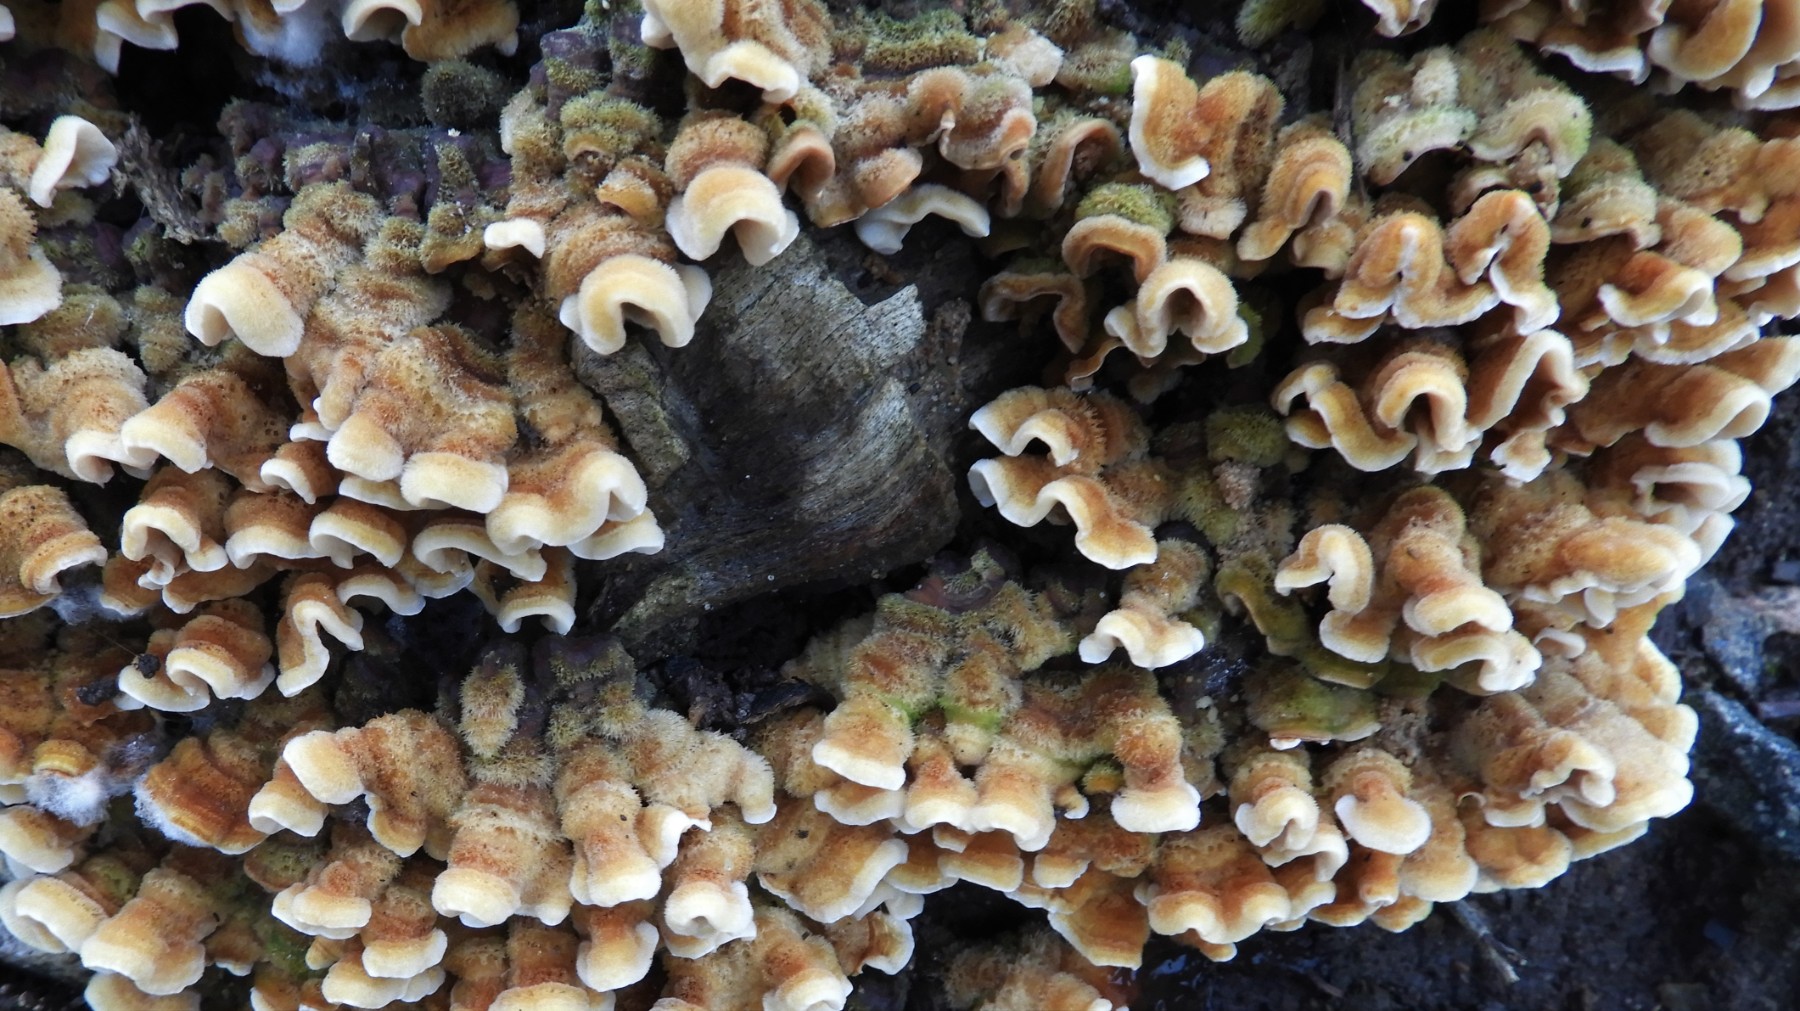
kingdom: Fungi
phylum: Basidiomycota
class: Agaricomycetes
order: Russulales
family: Stereaceae
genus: Stereum
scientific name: Stereum hirsutum
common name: håret lædersvamp
